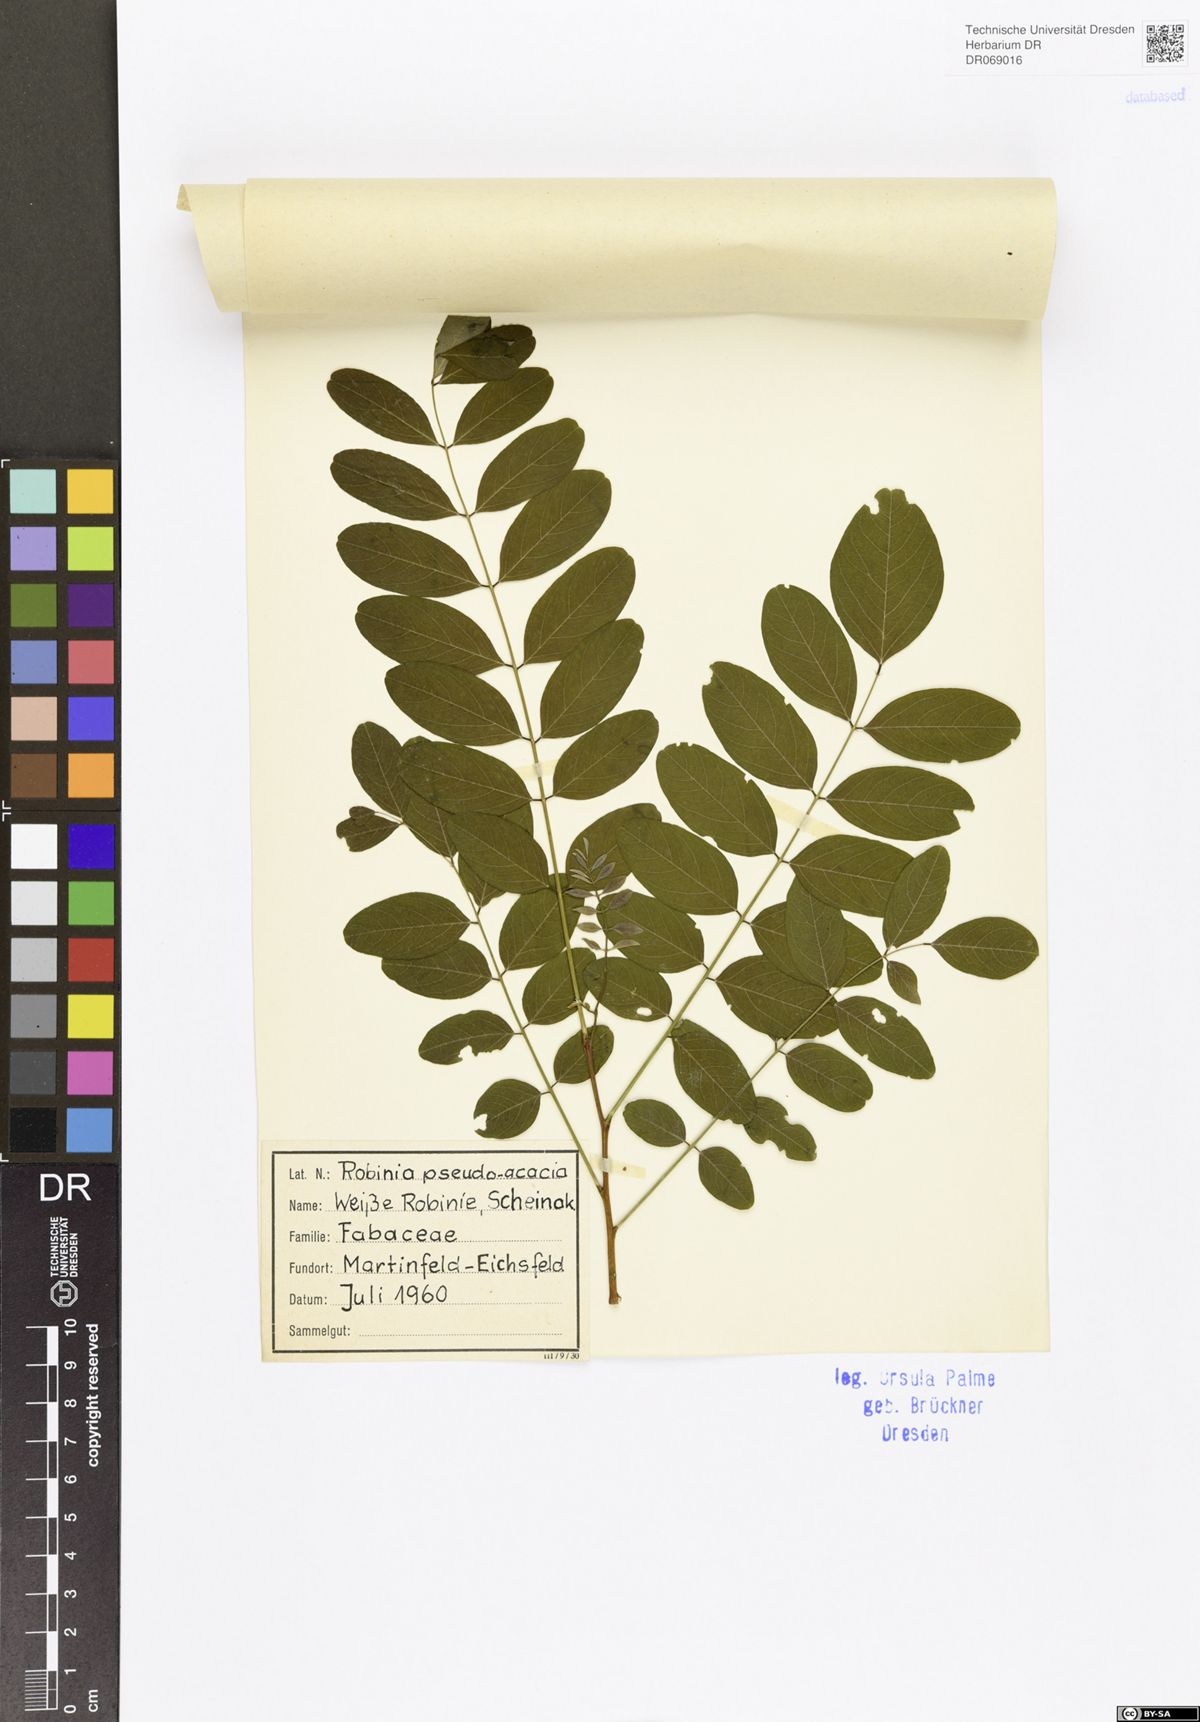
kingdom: Plantae
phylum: Tracheophyta
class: Magnoliopsida
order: Fabales
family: Fabaceae
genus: Robinia
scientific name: Robinia pseudoacacia
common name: Black locust
